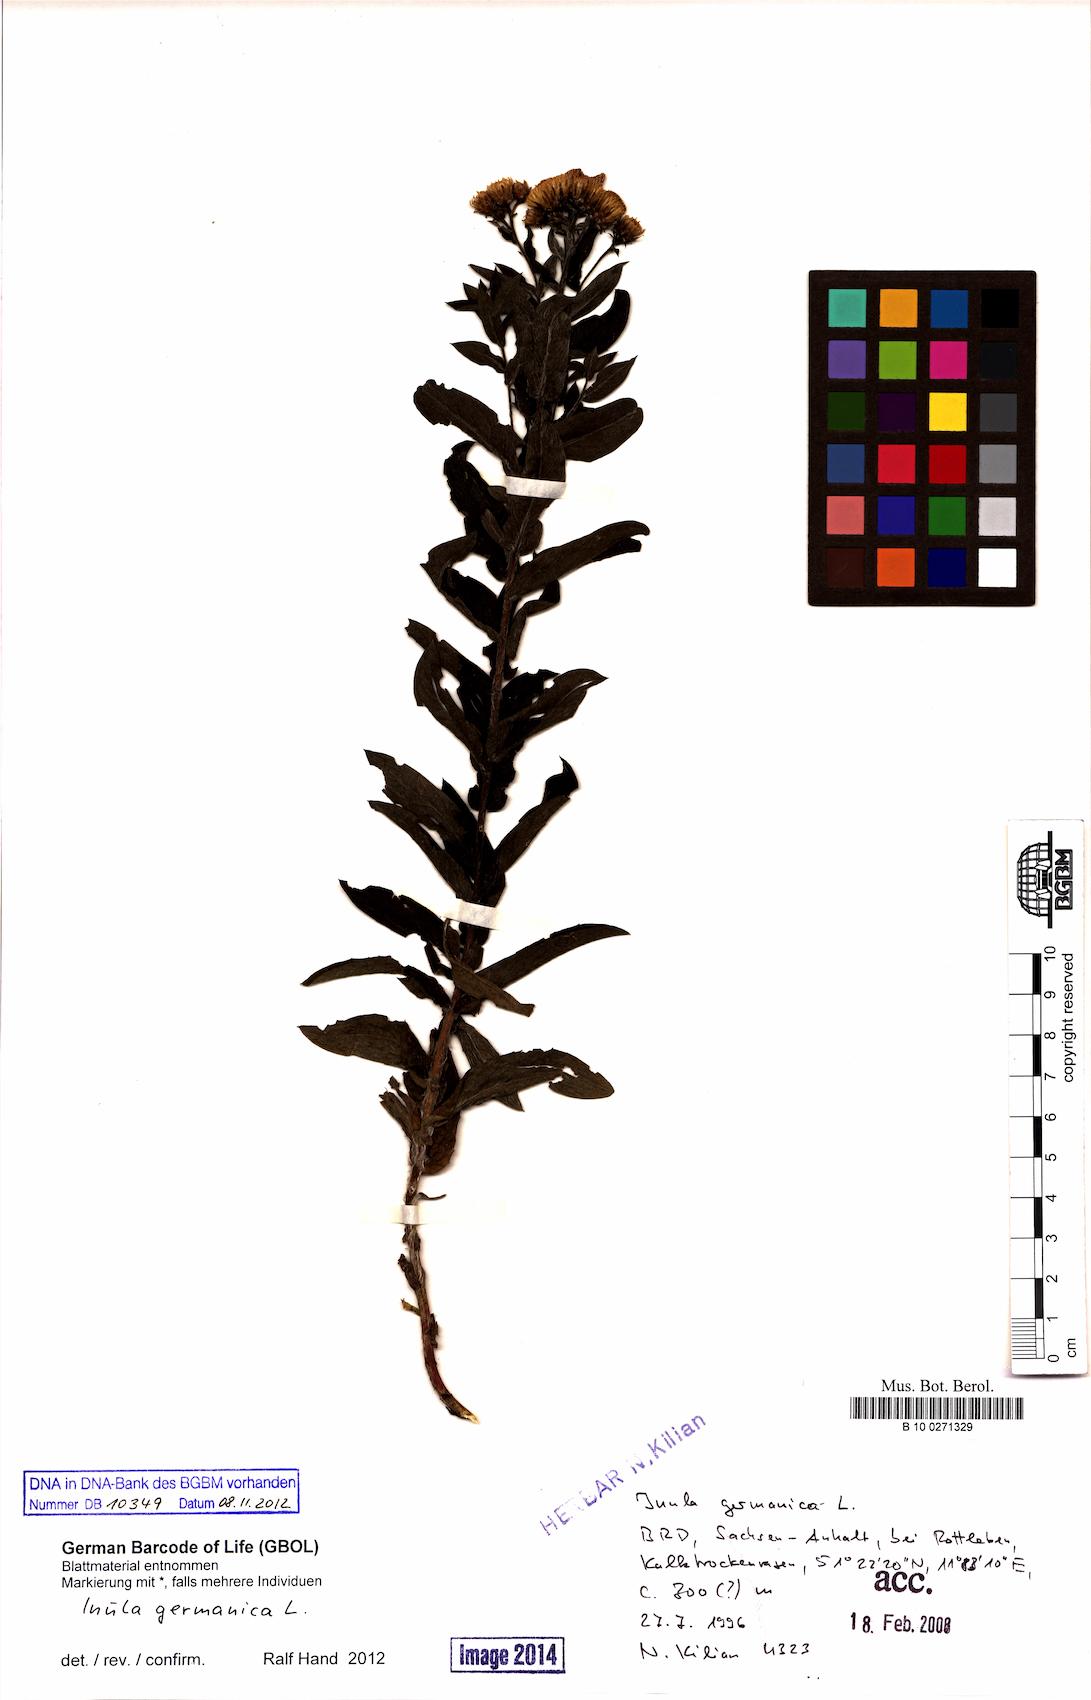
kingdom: Plantae
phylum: Tracheophyta
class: Magnoliopsida
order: Asterales
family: Asteraceae
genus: Pentanema
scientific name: Pentanema germanicum
